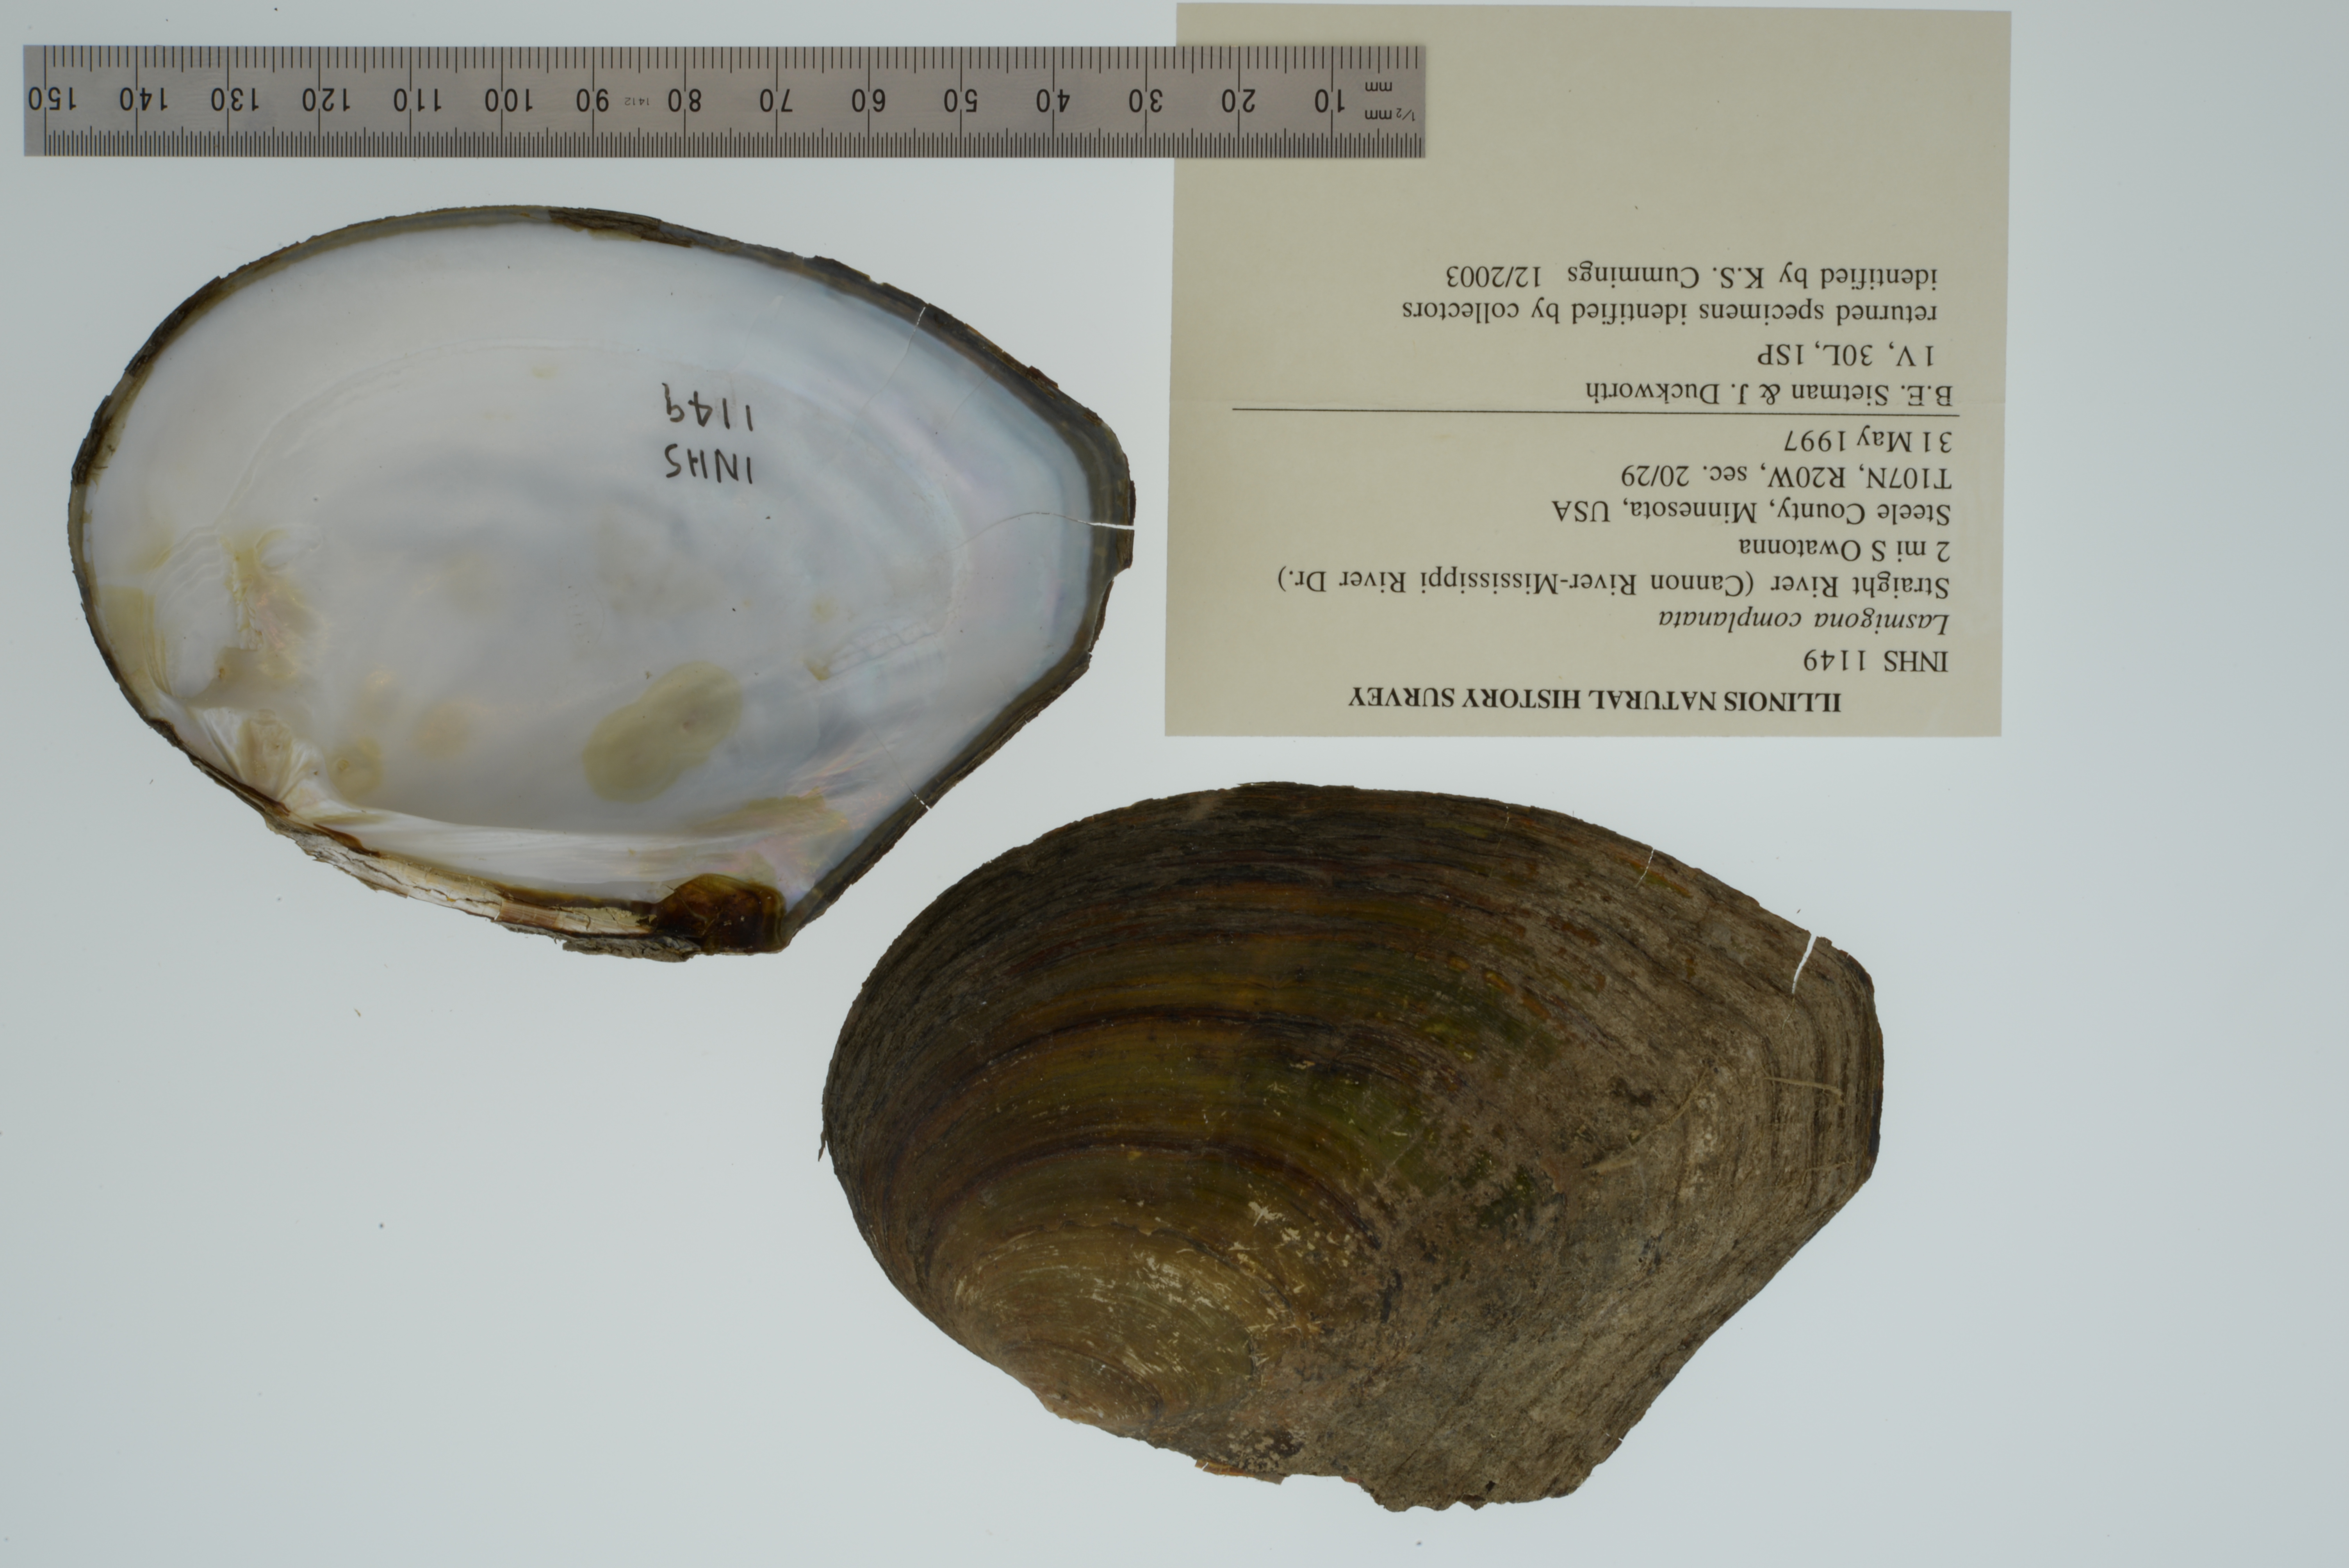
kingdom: Animalia
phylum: Mollusca
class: Bivalvia
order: Unionida
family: Unionidae
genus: Lasmigona
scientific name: Lasmigona complanata
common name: White heelsplitter
